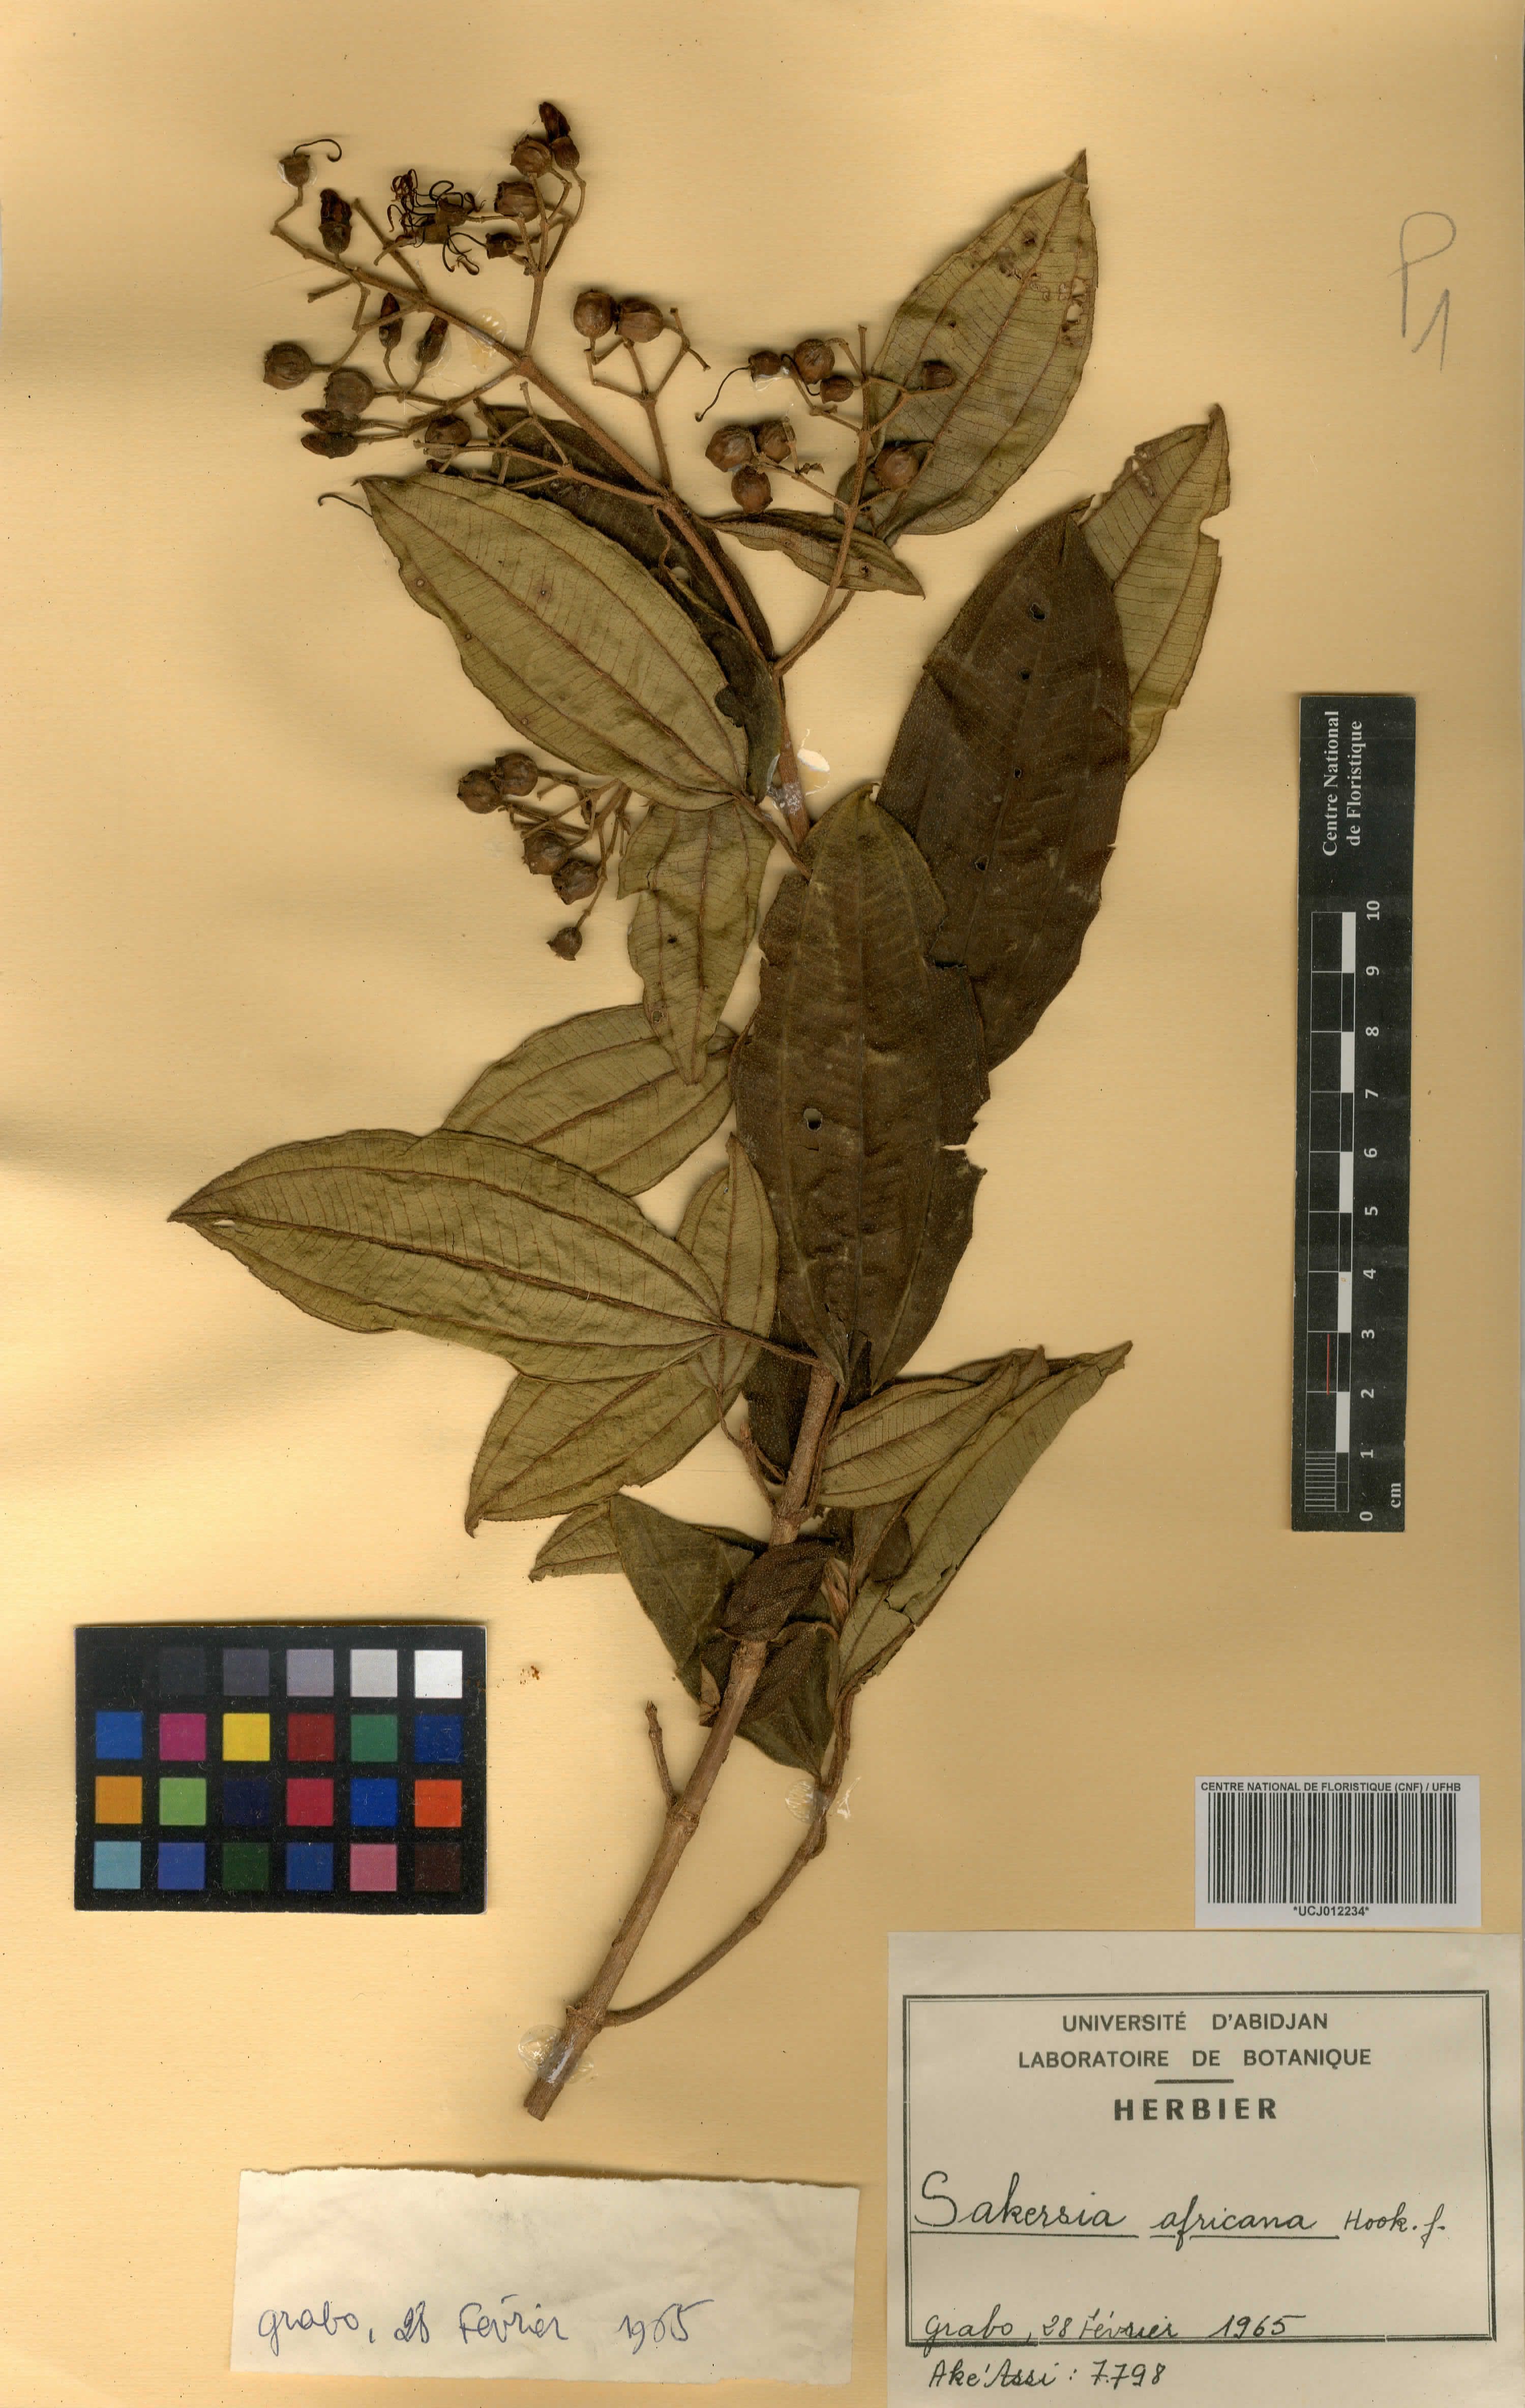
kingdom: Plantae
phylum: Tracheophyta
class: Magnoliopsida
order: Myrtales
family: Melastomataceae
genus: Dichaetanthera
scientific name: Dichaetanthera africana
